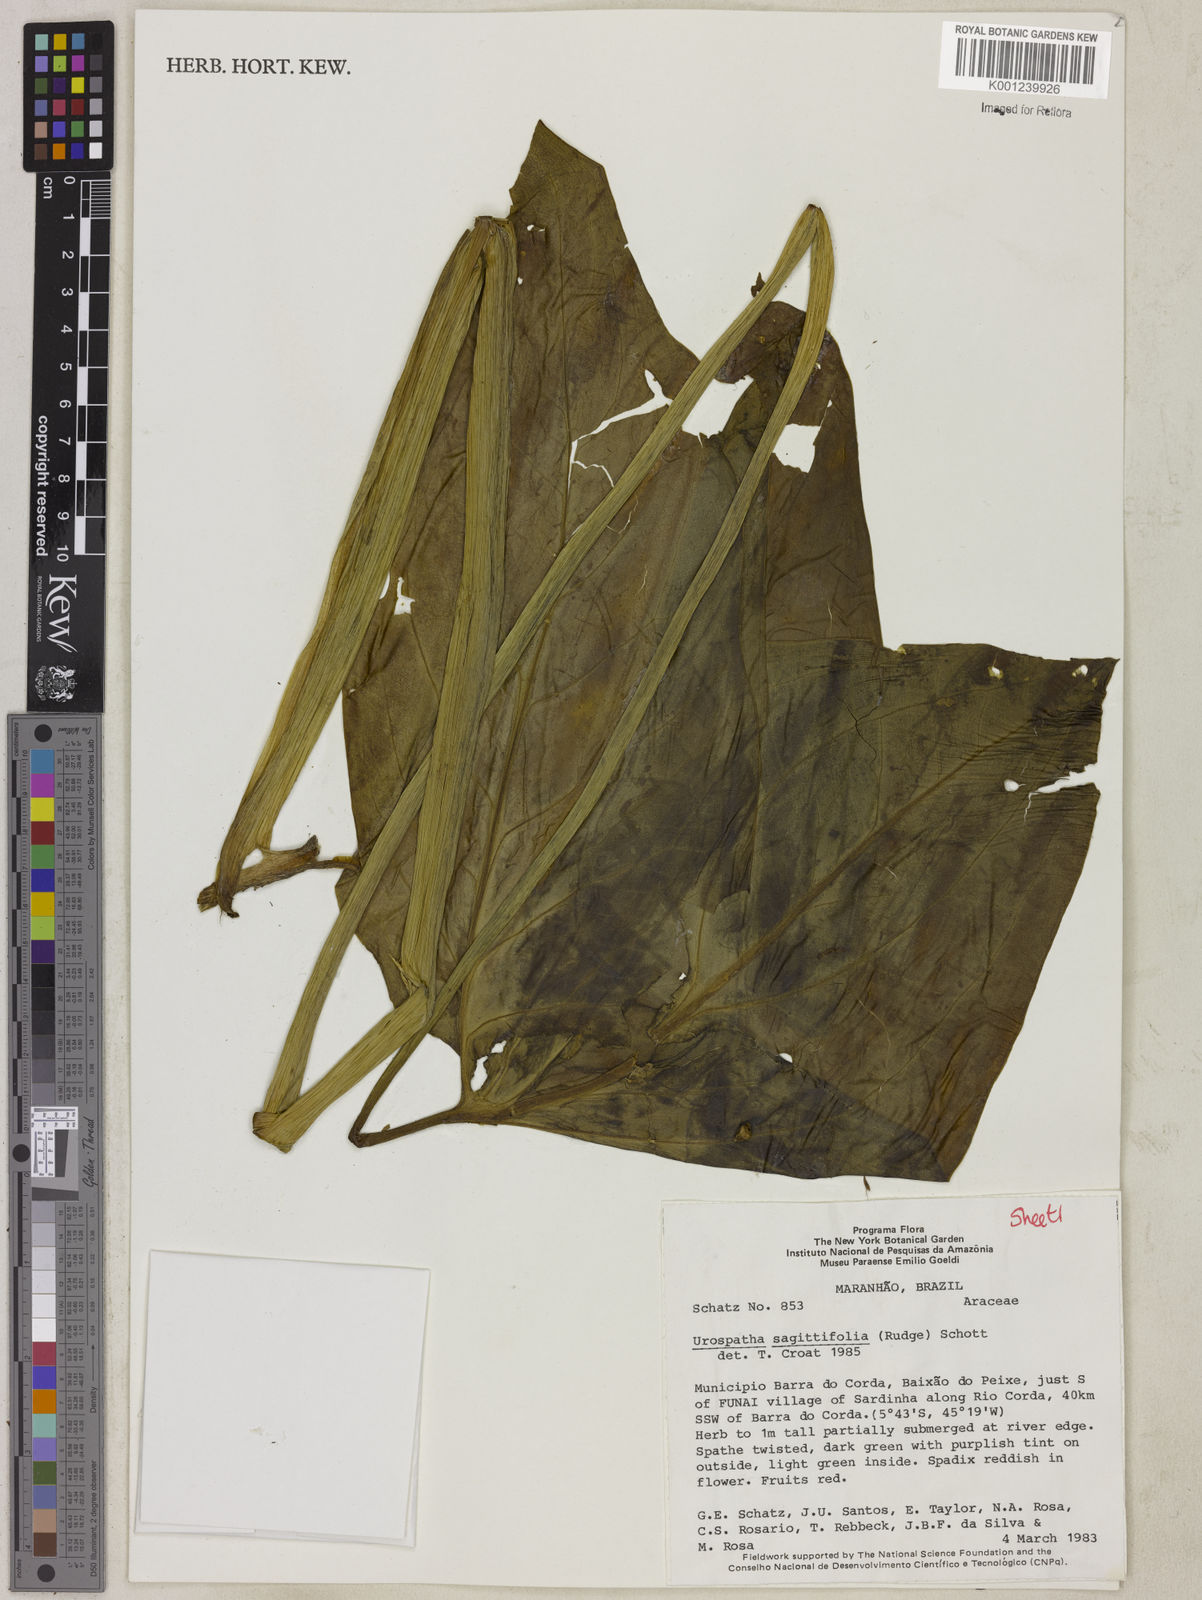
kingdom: Plantae
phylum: Tracheophyta
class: Liliopsida
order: Alismatales
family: Araceae
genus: Urospatha
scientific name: Urospatha sagittifolia
